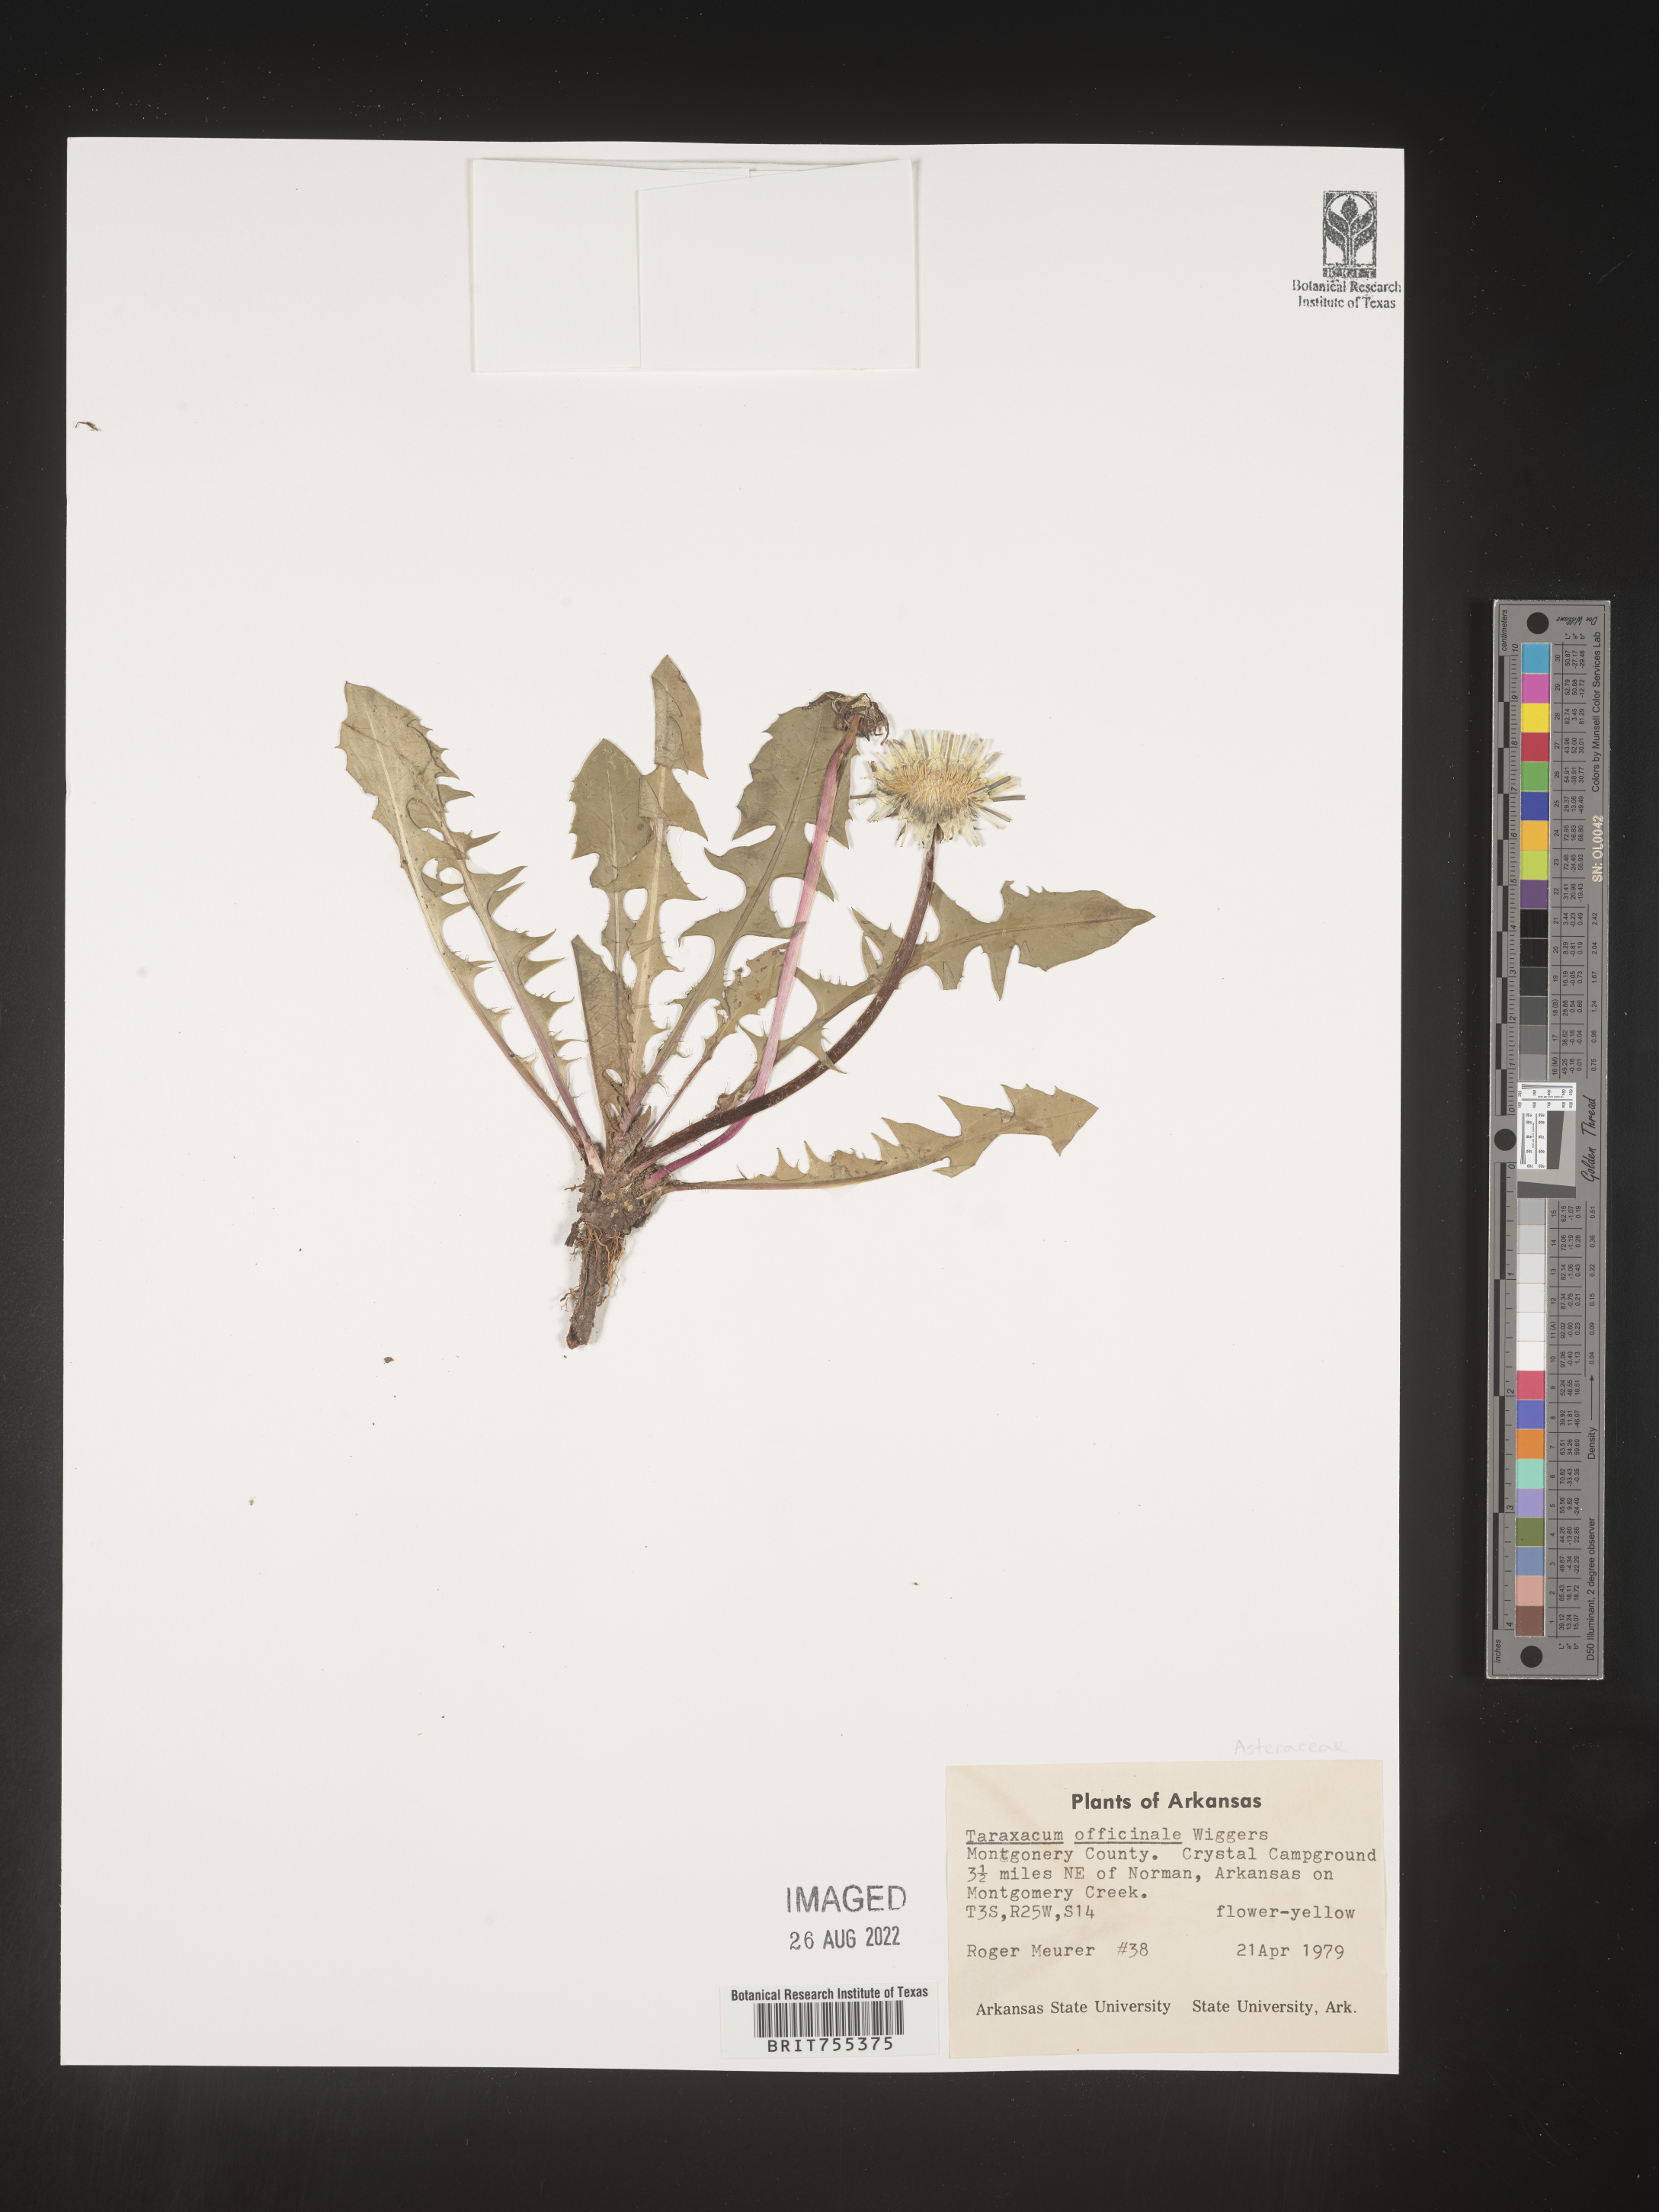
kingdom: Plantae
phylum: Tracheophyta
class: Magnoliopsida
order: Asterales
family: Asteraceae
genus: Taraxacum
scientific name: Taraxacum officinale
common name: Common dandelion
